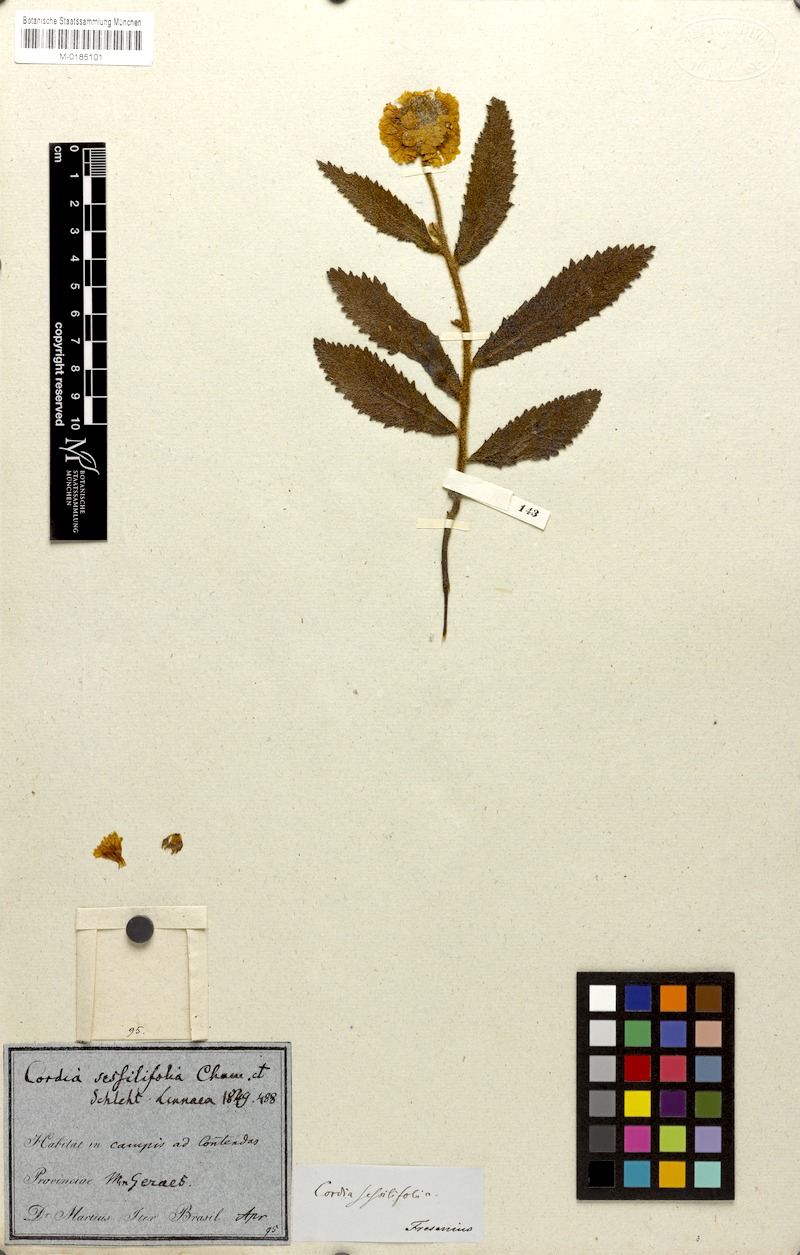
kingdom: Plantae
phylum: Tracheophyta
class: Magnoliopsida
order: Boraginales
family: Cordiaceae
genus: Varronia
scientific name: Varronia sessilifolia
